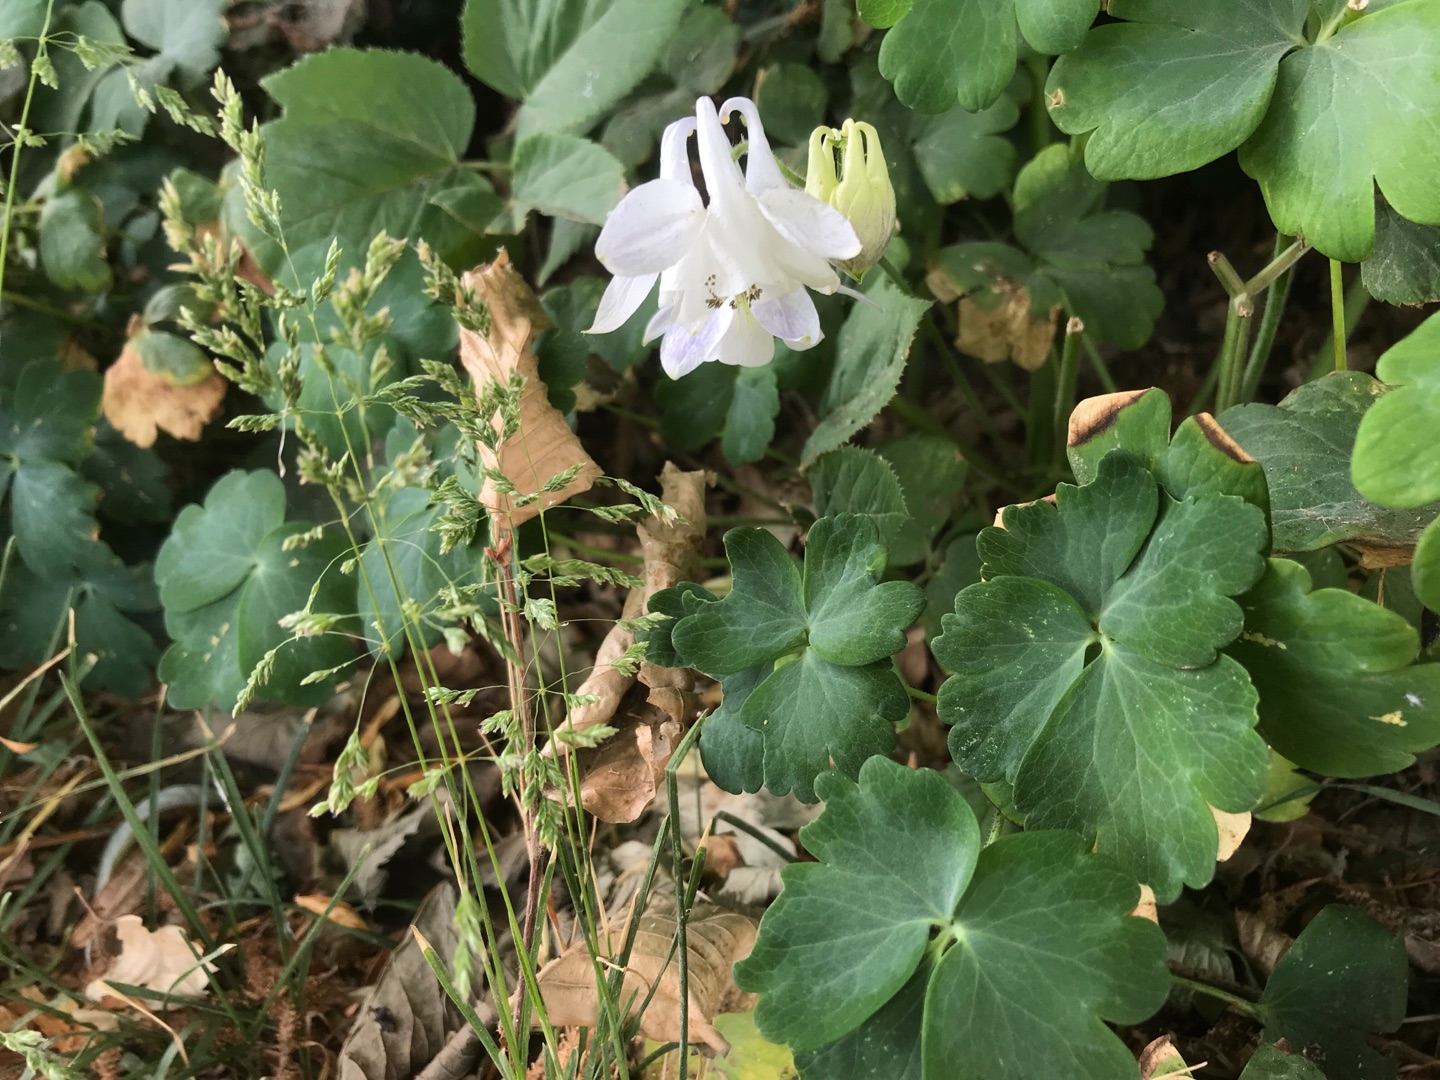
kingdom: Plantae
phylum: Tracheophyta
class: Magnoliopsida
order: Ranunculales
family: Ranunculaceae
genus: Aquilegia
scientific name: Aquilegia vulgaris
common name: Akeleje
